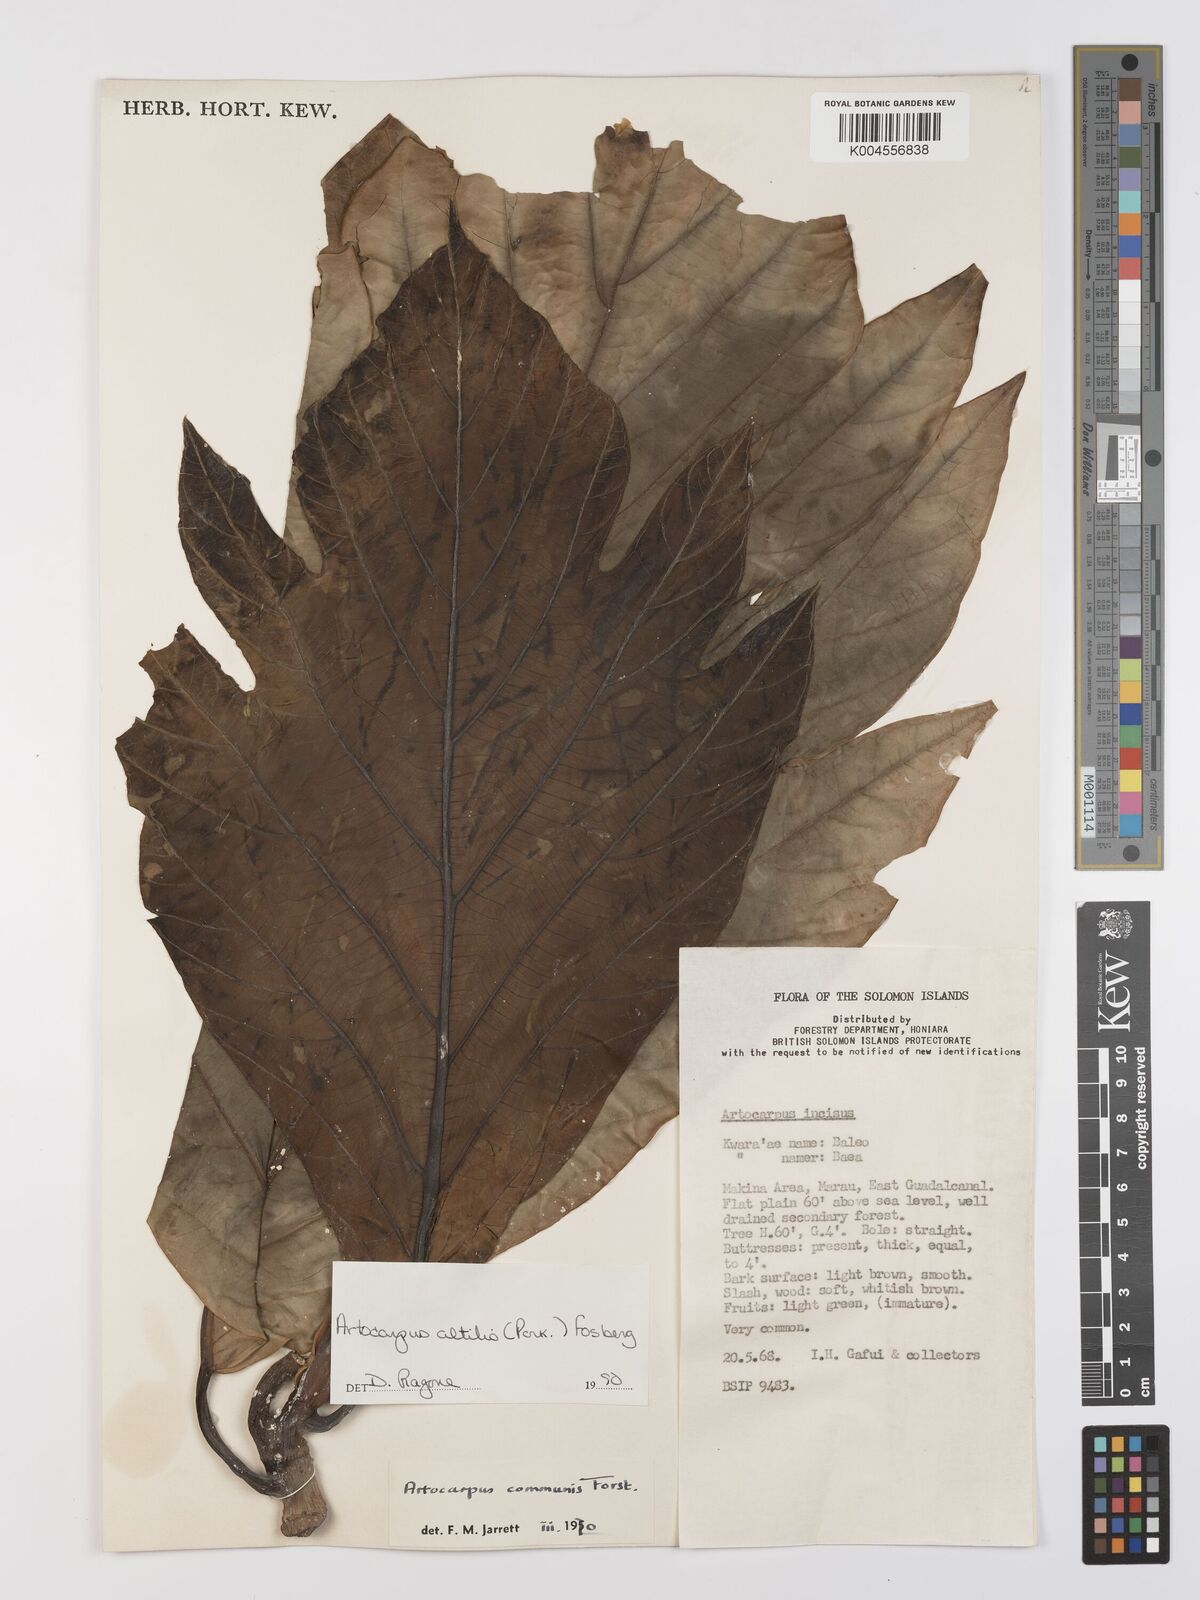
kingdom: Plantae
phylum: Tracheophyta
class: Magnoliopsida
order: Rosales
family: Moraceae
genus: Artocarpus
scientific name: Artocarpus altilis
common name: Breadfruit
